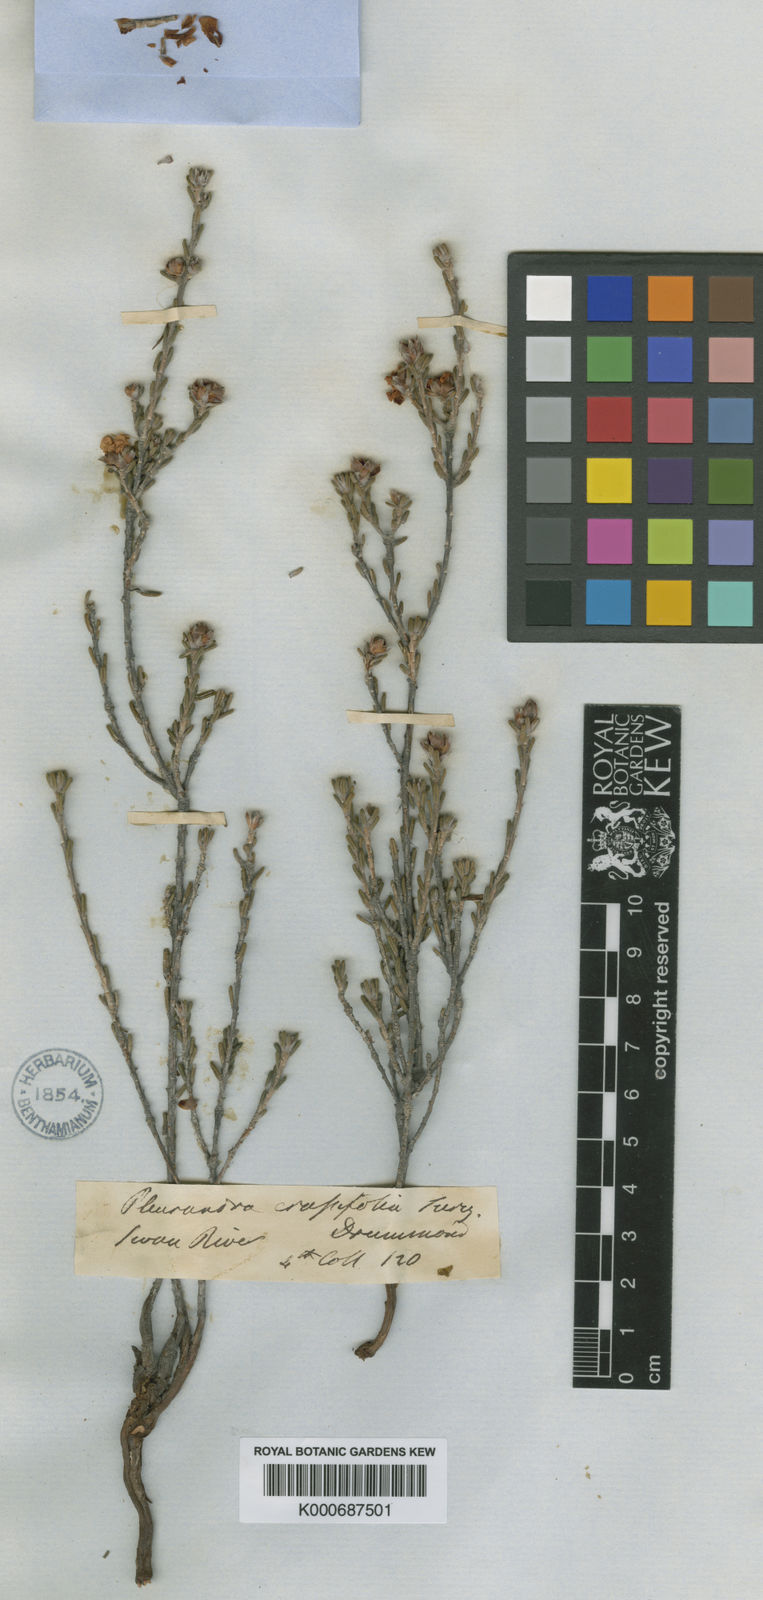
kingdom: Plantae
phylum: Tracheophyta
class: Magnoliopsida
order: Dilleniales
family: Dilleniaceae
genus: Hibbertia
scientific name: Hibbertia crassifolia
